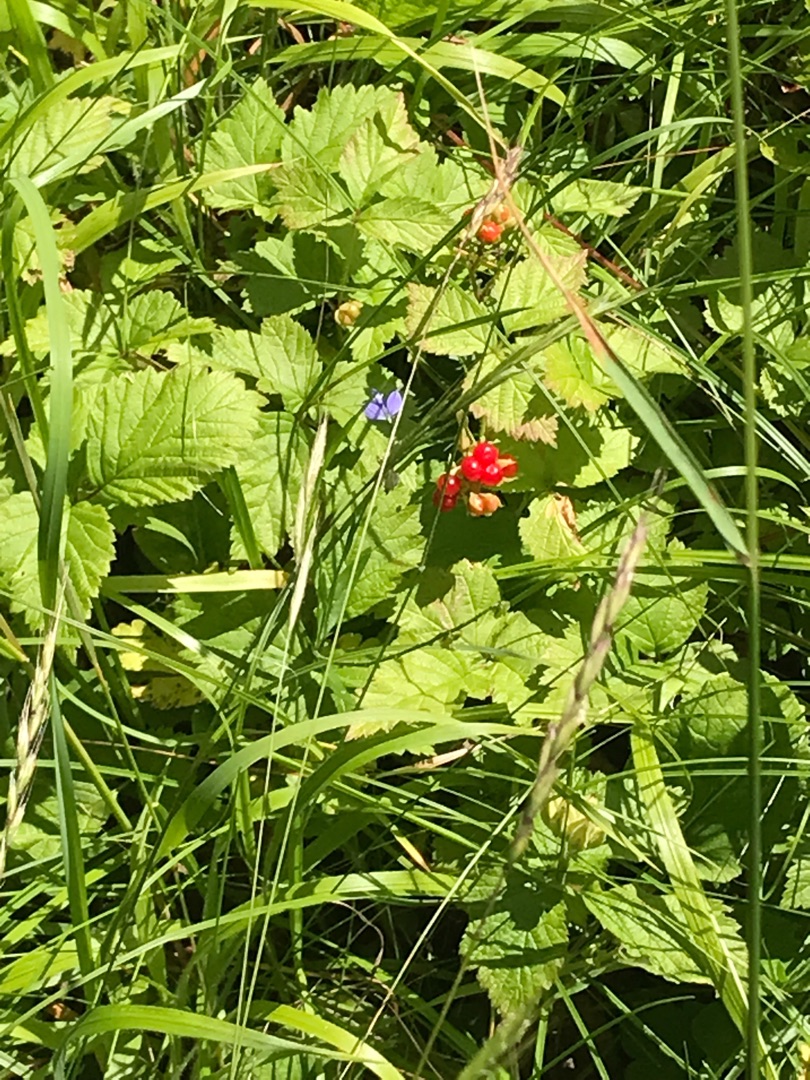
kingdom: Plantae
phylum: Tracheophyta
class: Magnoliopsida
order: Rosales
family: Rosaceae
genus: Rubus
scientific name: Rubus saxatilis
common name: Fruebær
